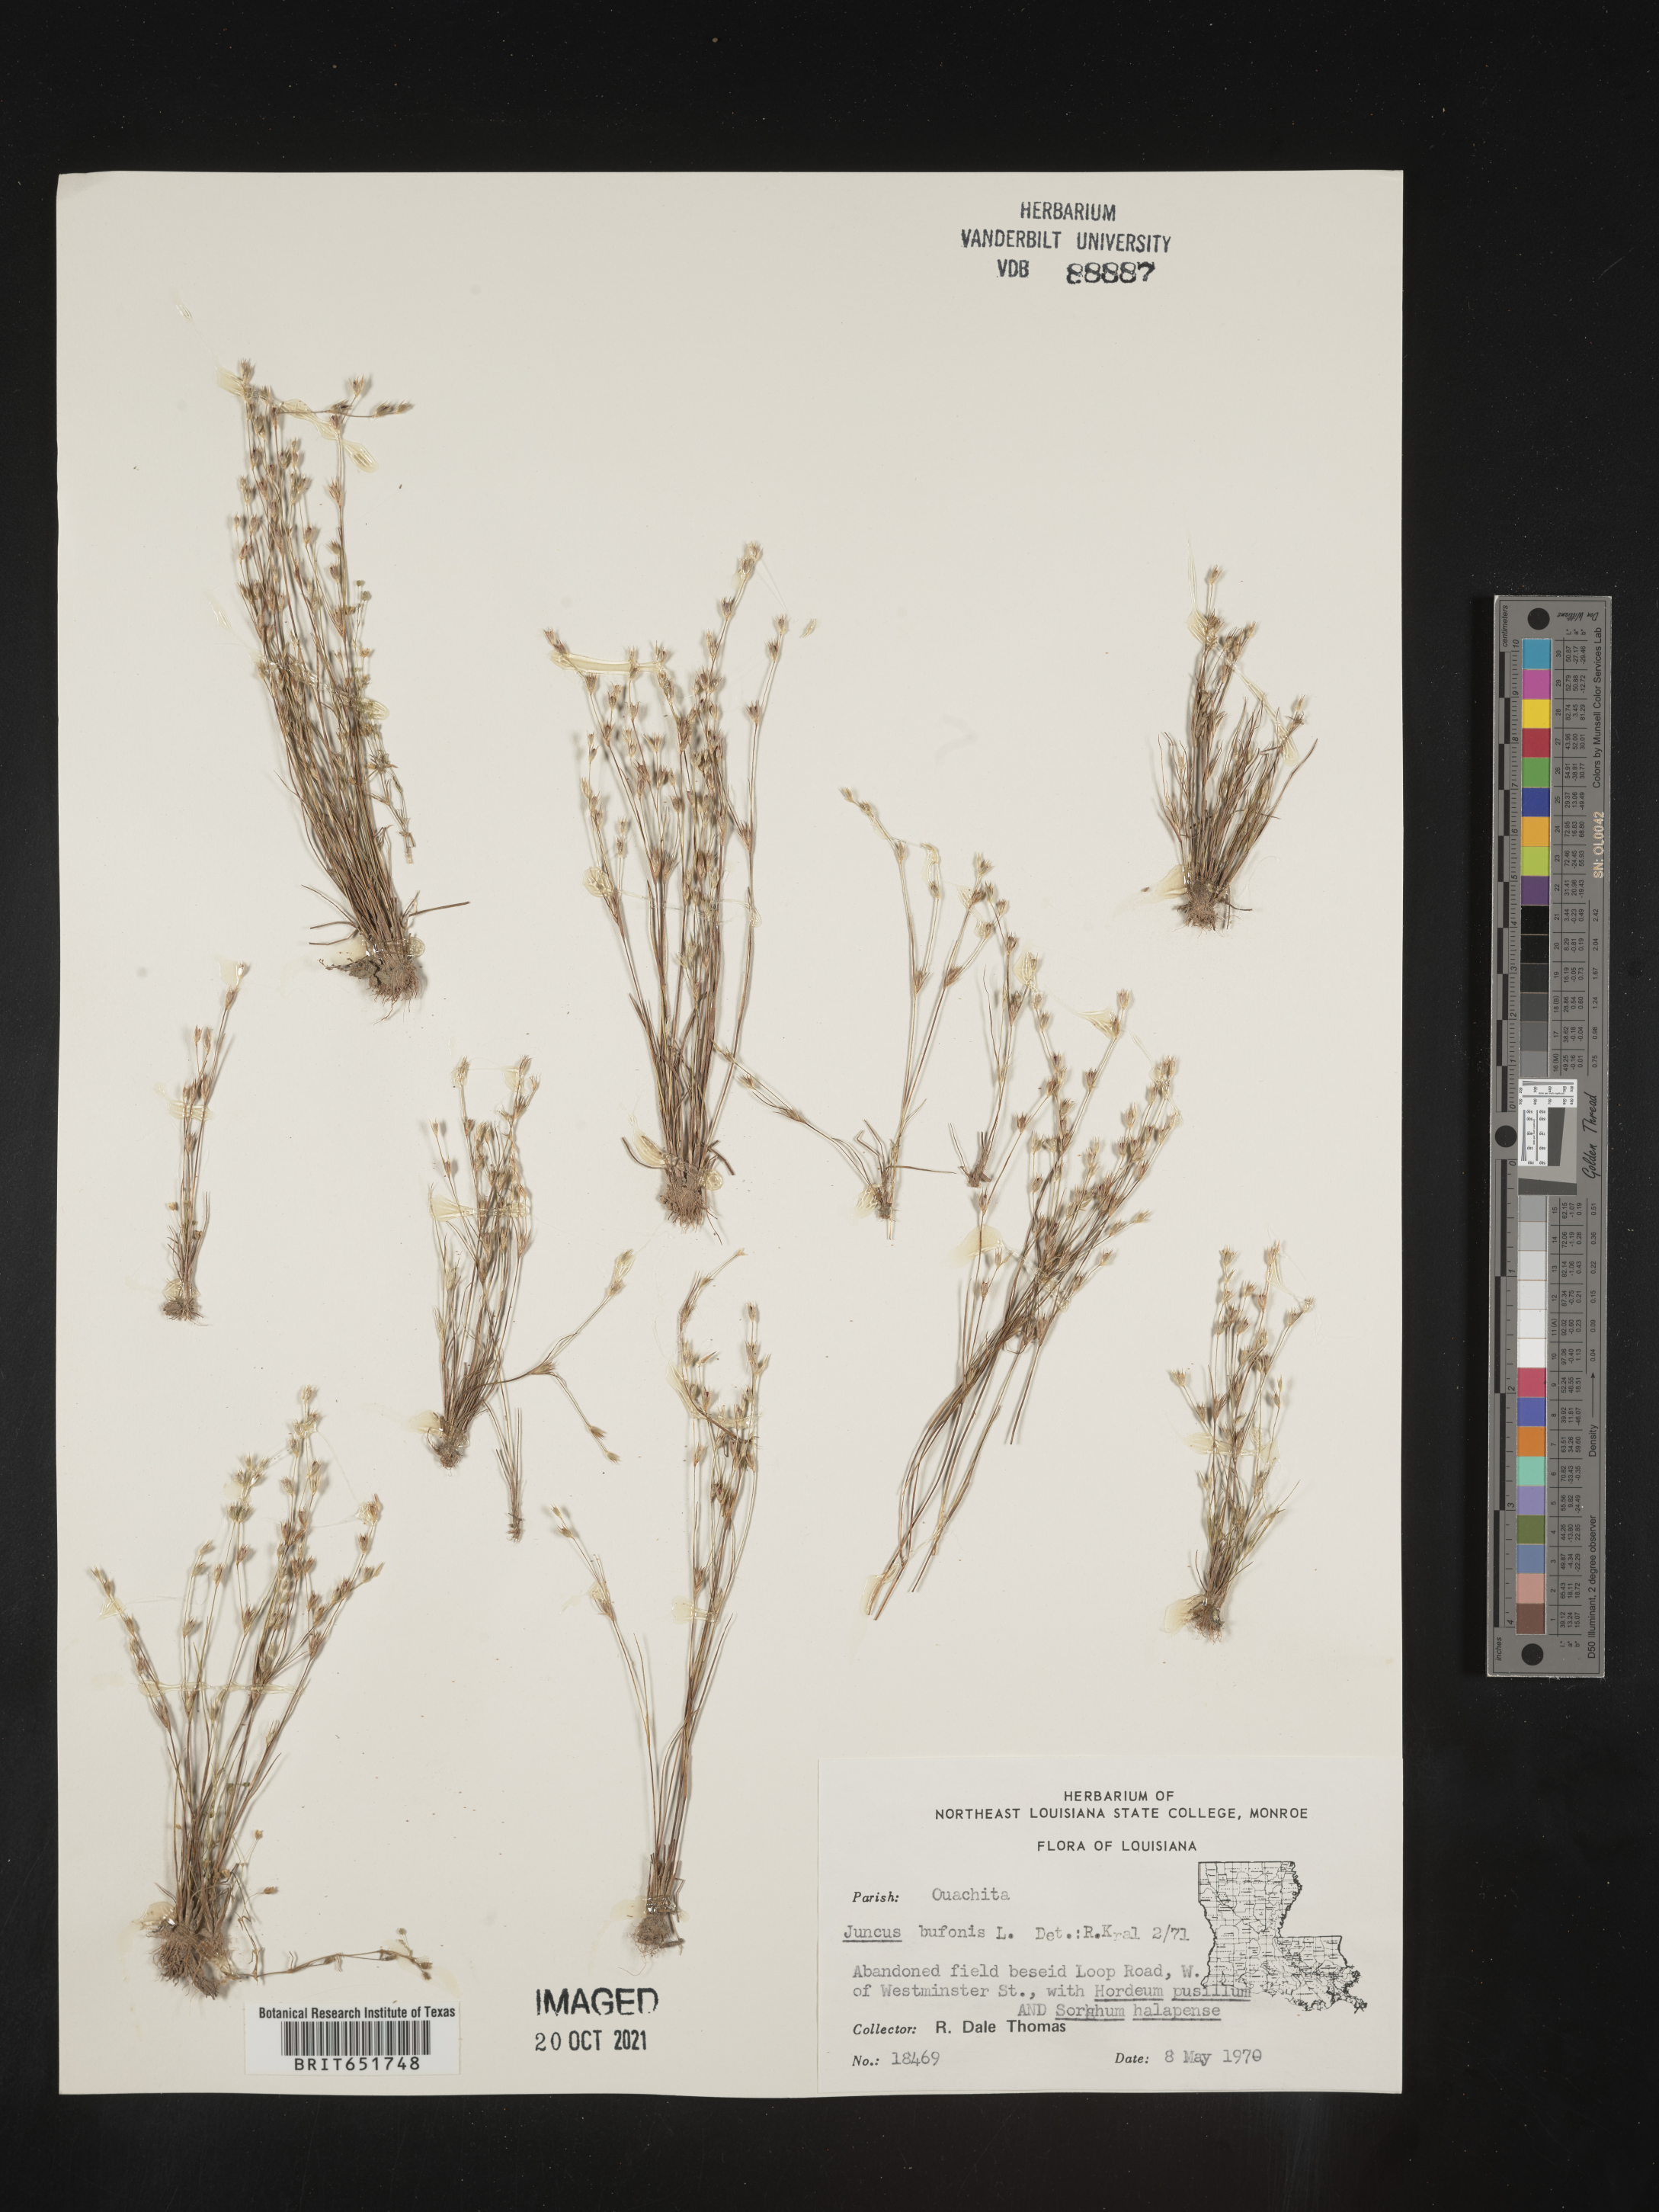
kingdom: Plantae
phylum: Tracheophyta
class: Liliopsida
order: Poales
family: Juncaceae
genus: Juncus
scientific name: Juncus bufonius
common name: Toad rush
